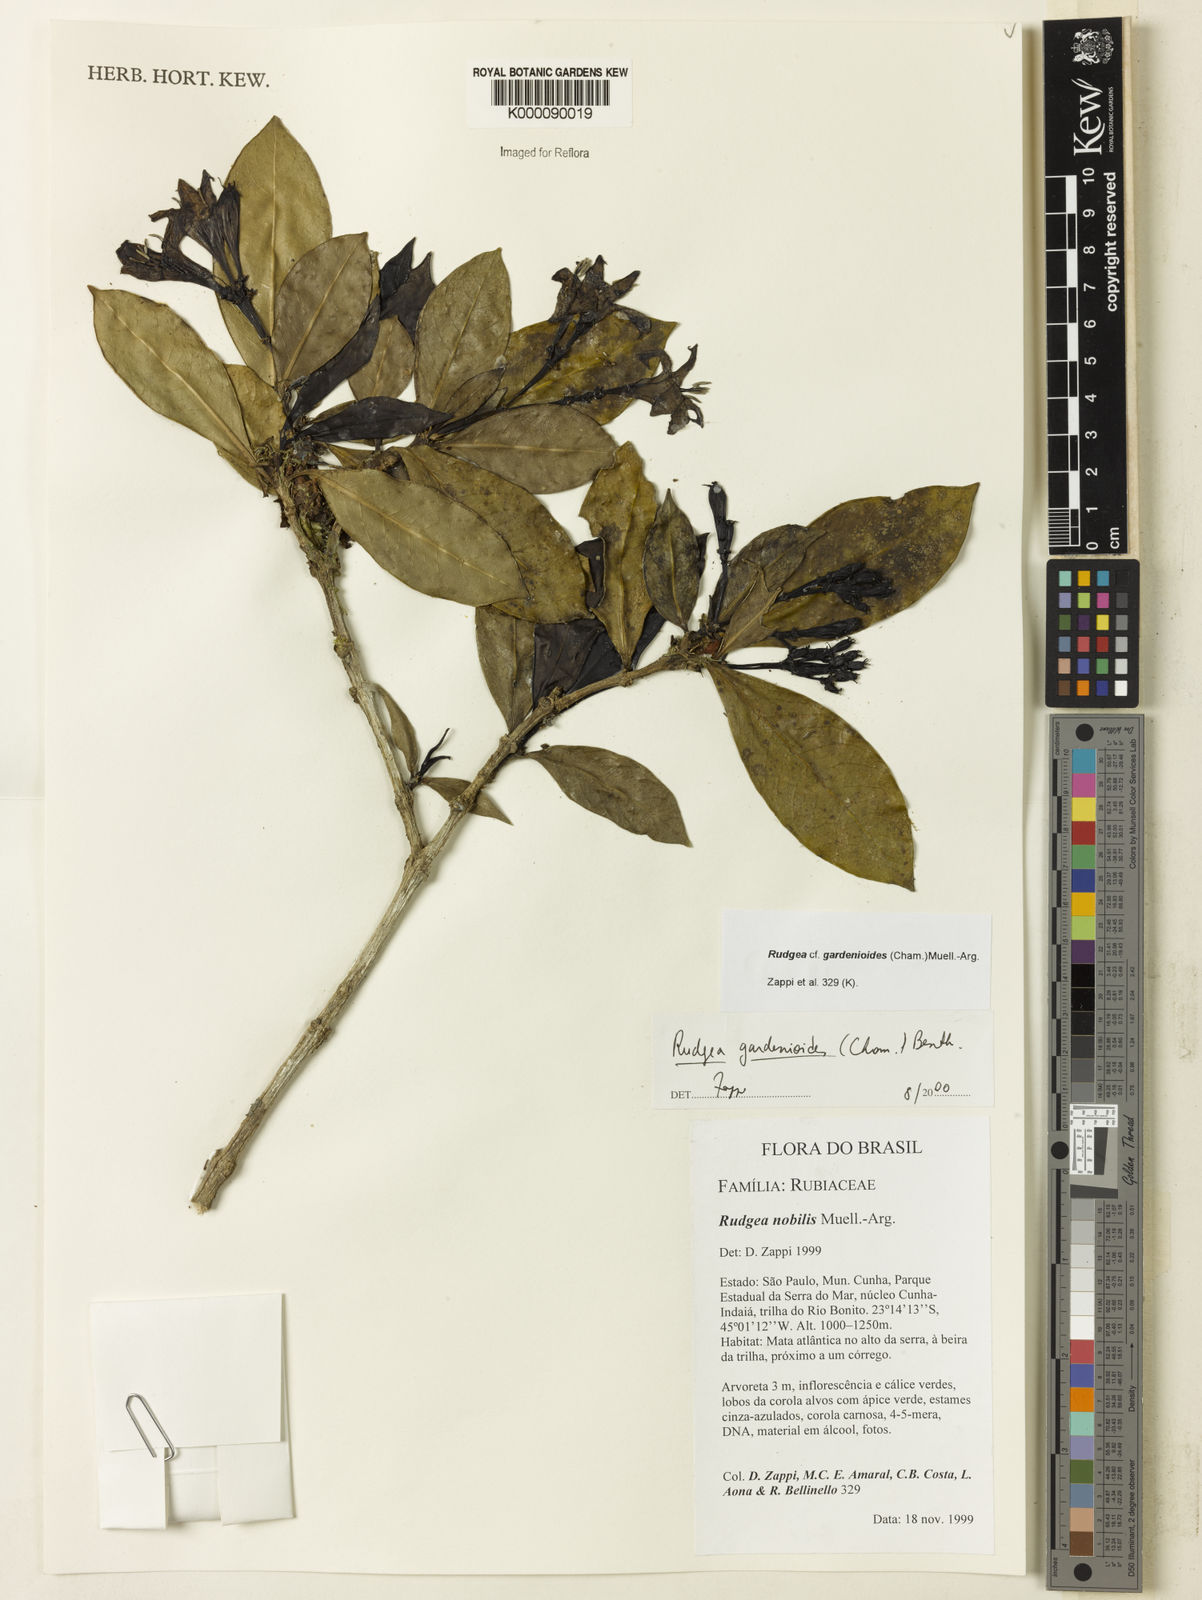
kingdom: Plantae
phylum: Tracheophyta
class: Magnoliopsida
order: Gentianales
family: Rubiaceae
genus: Rudgea
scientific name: Rudgea gardenioides
